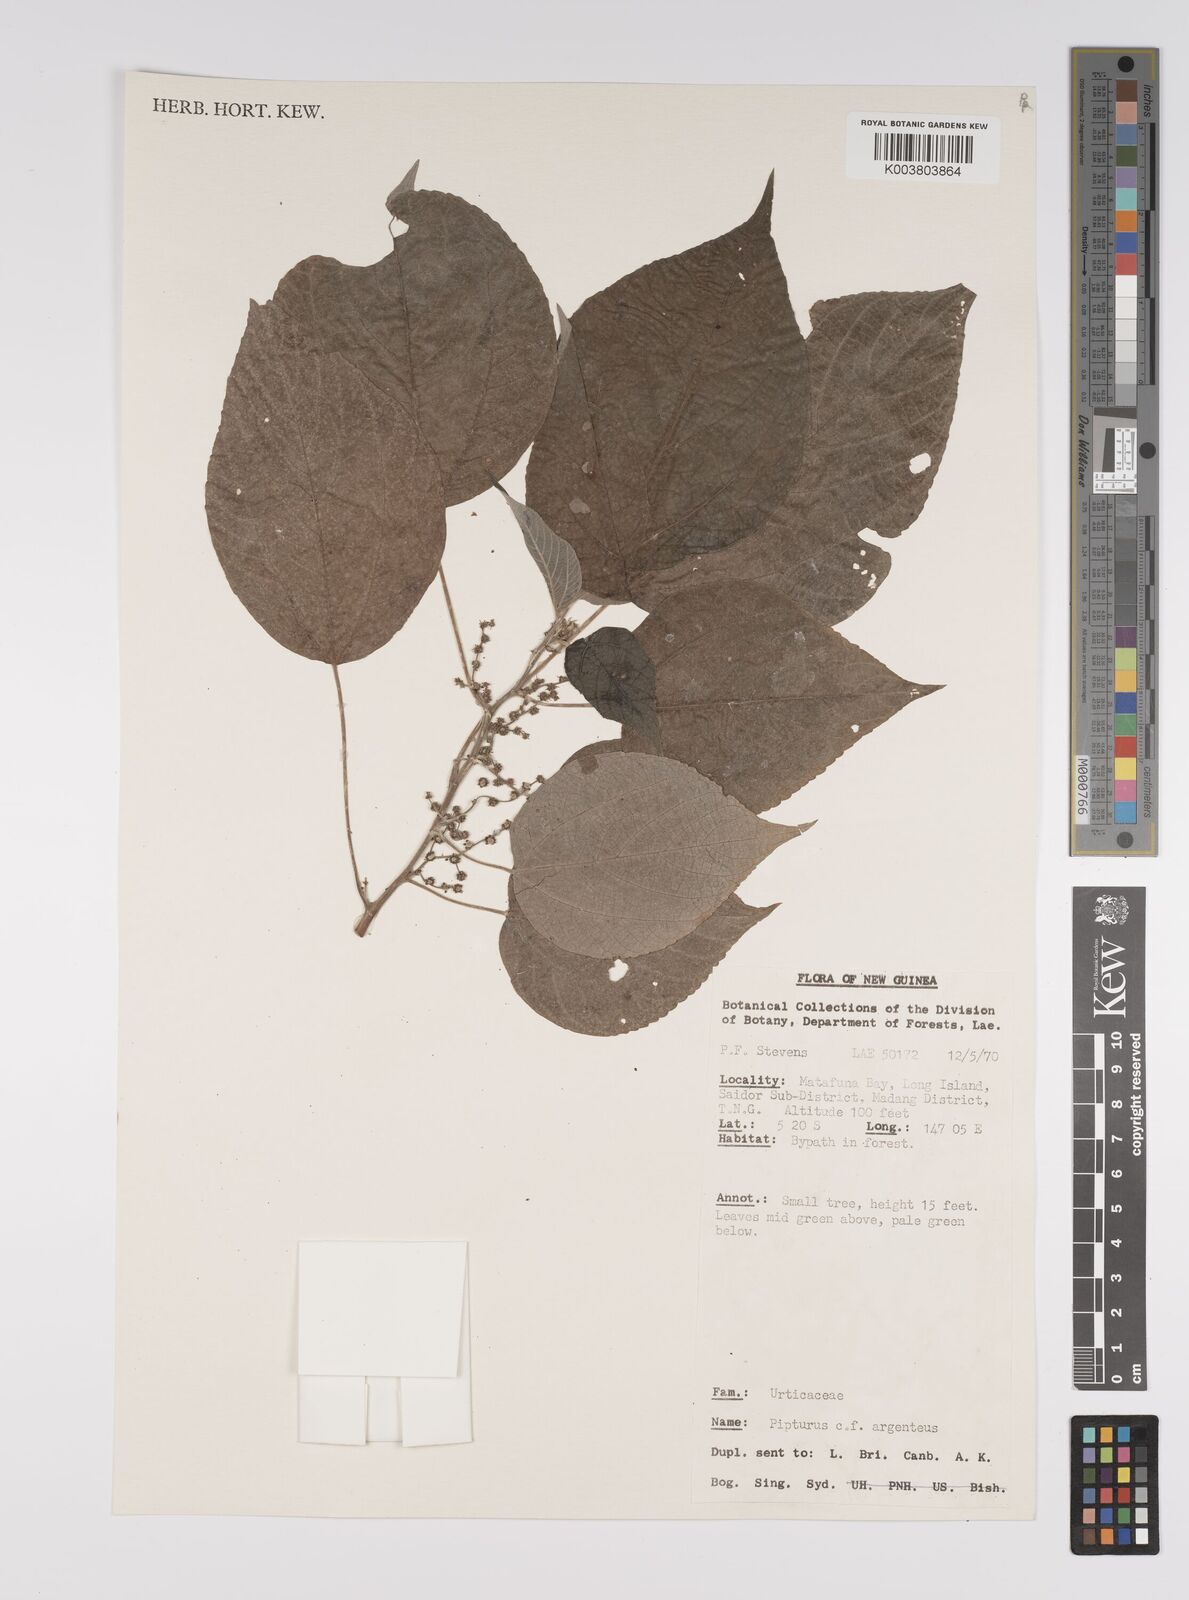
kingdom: Plantae
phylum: Tracheophyta
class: Magnoliopsida
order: Rosales
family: Urticaceae
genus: Pipturus
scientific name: Pipturus argenteus
